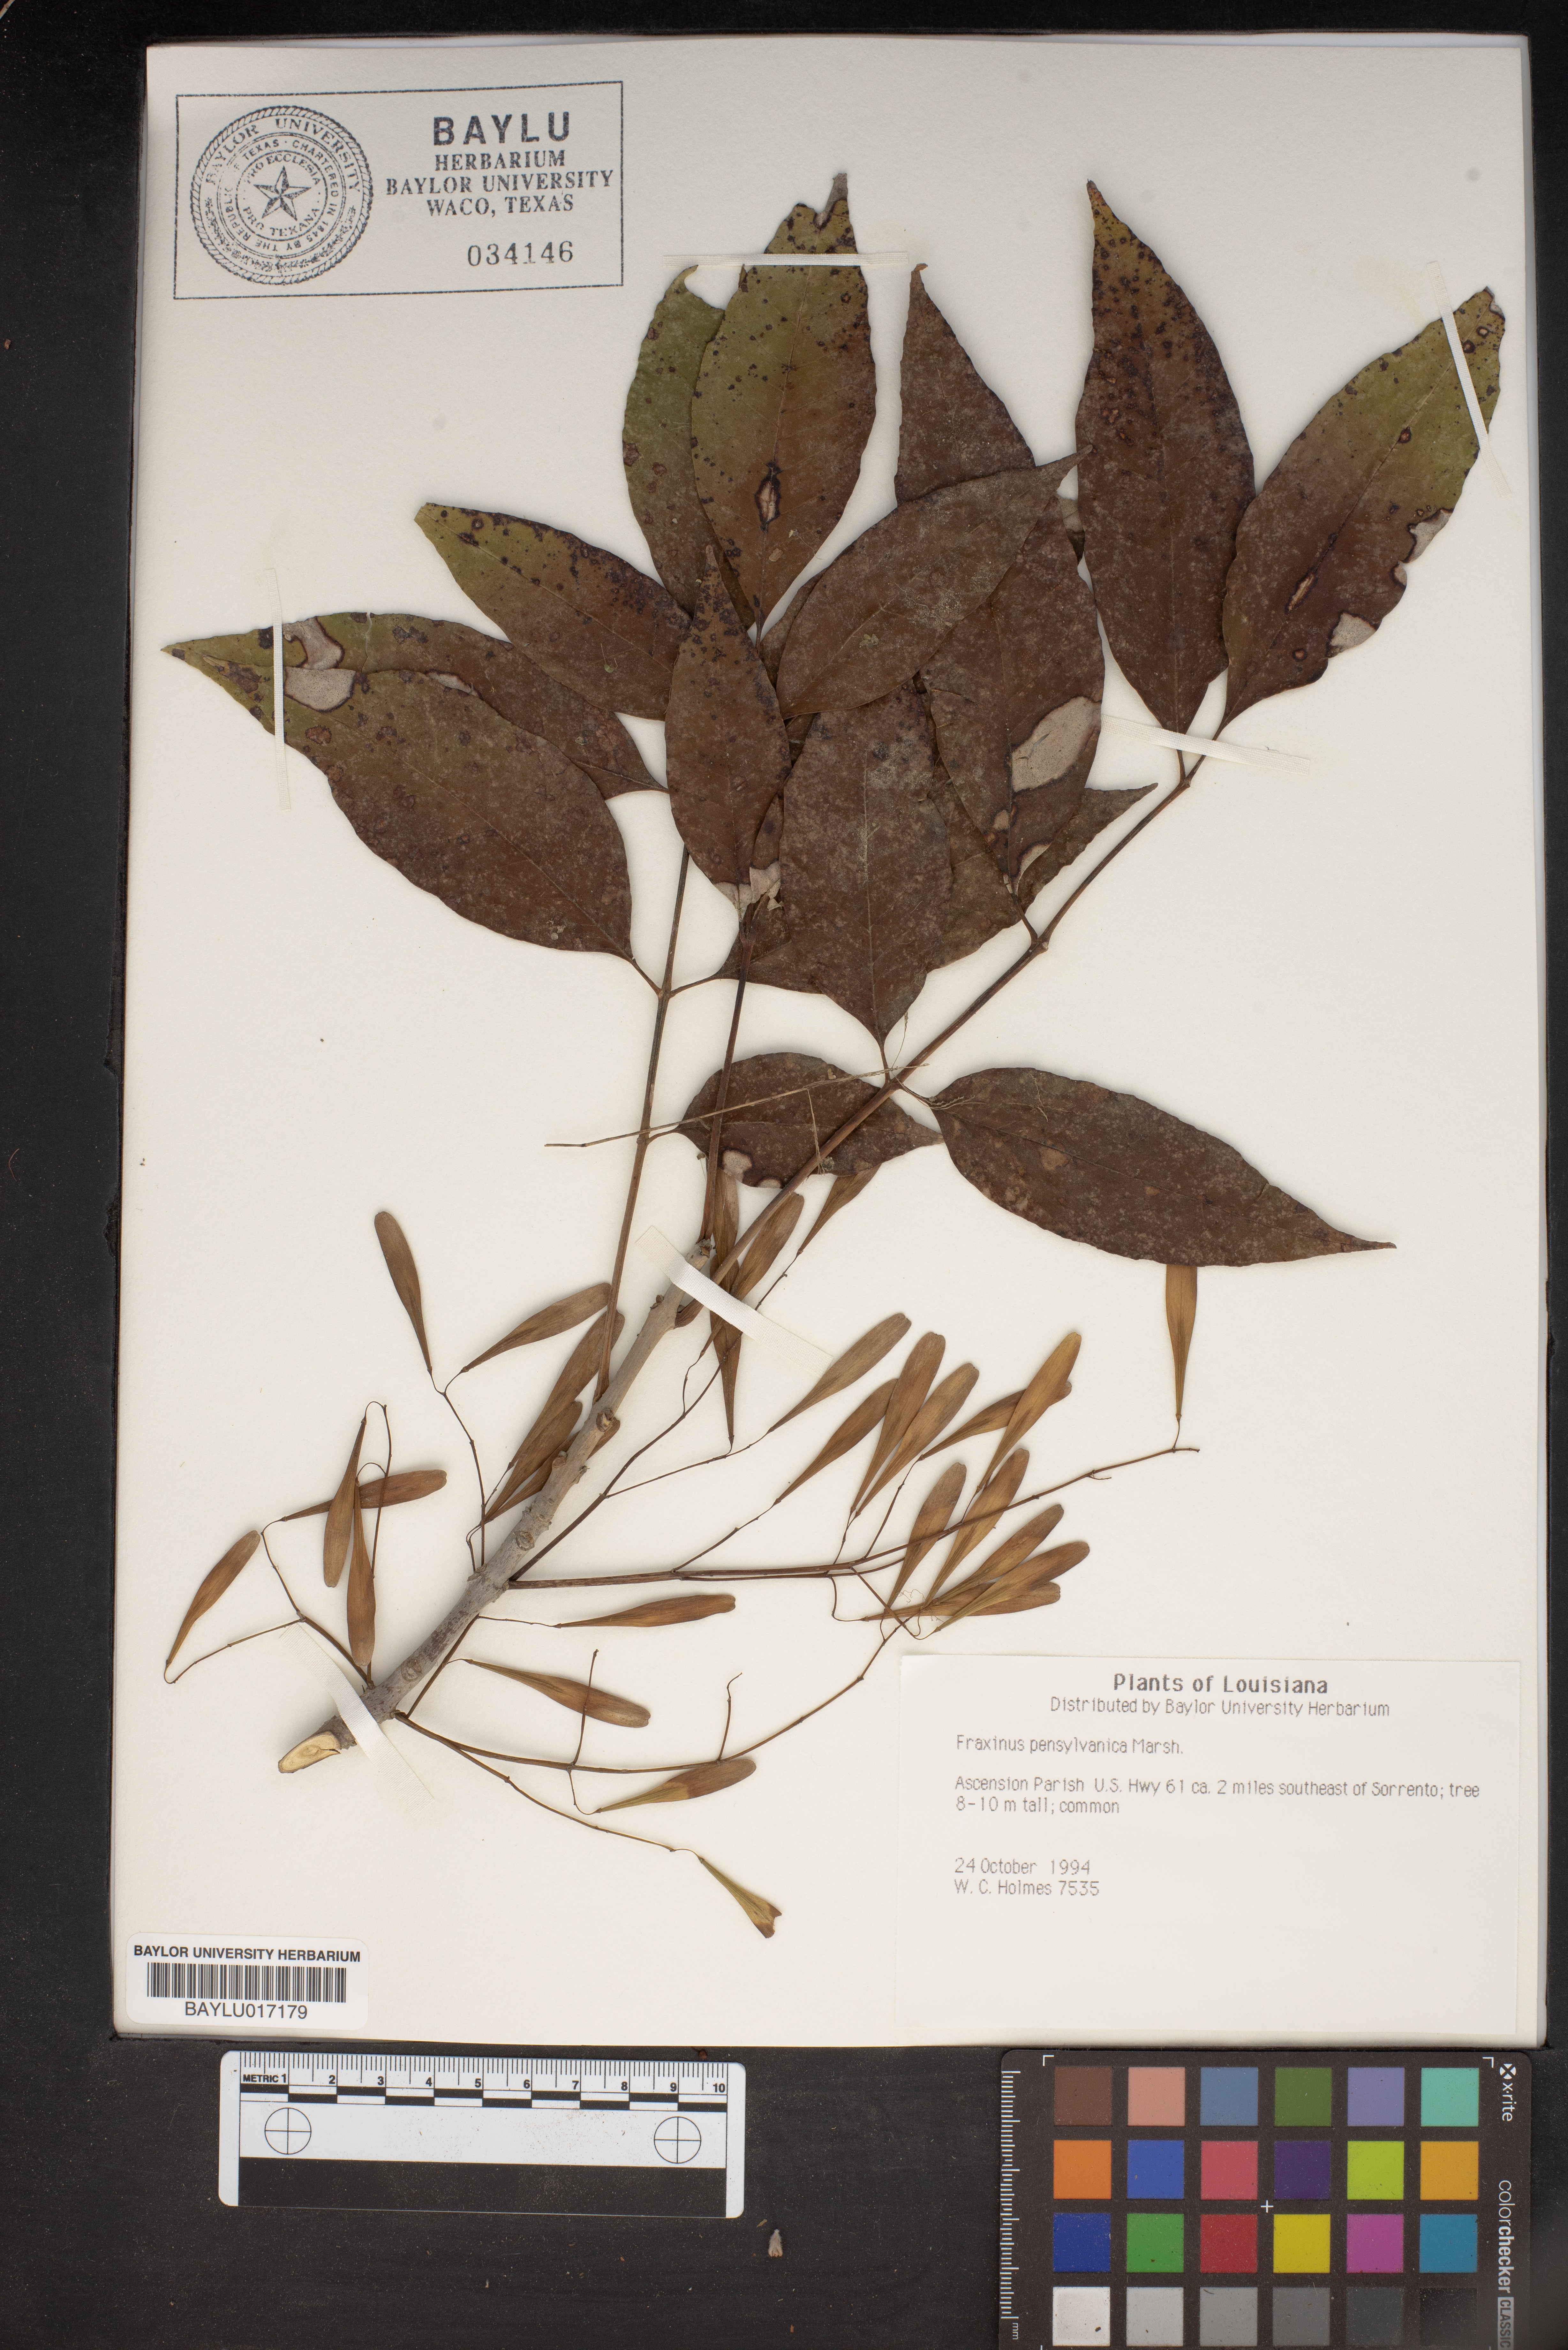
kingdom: Plantae
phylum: Tracheophyta
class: Magnoliopsida
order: Lamiales
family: Oleaceae
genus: Fraxinus
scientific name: Fraxinus pennsylvanica
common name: Green ash
